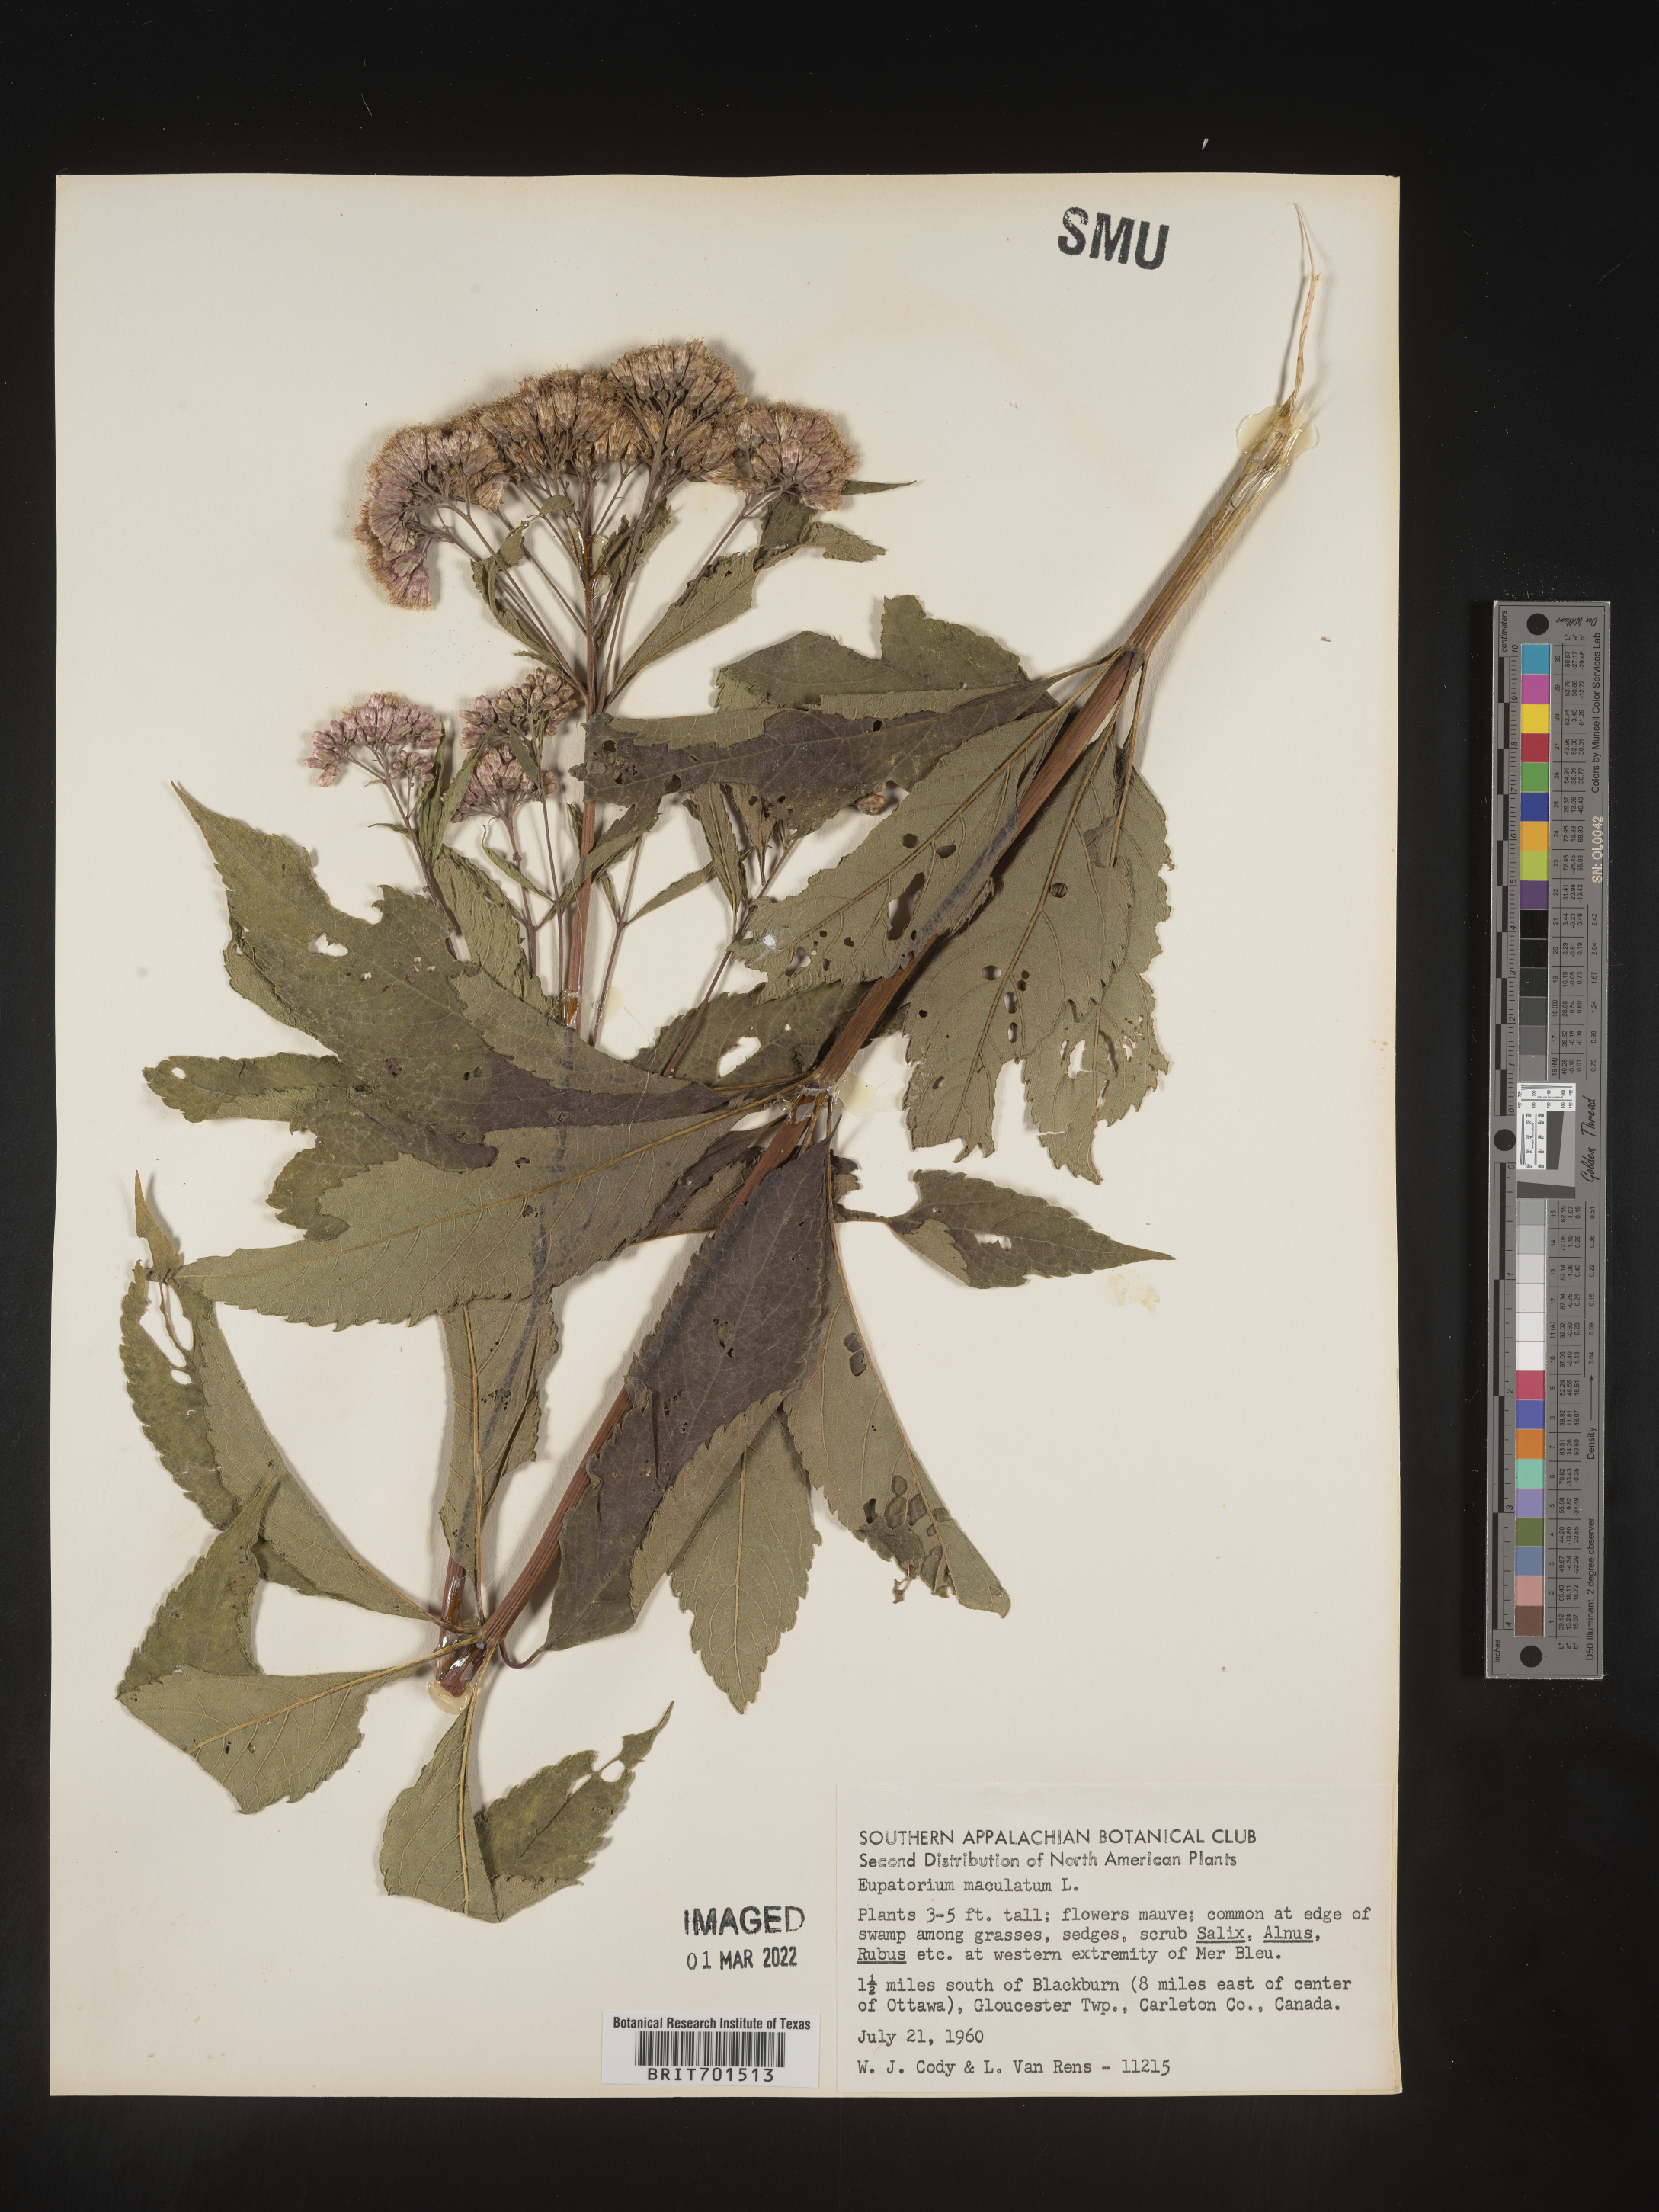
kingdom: Plantae
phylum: Tracheophyta
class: Magnoliopsida
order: Asterales
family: Asteraceae
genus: Eutrochium
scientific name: Eutrochium maculatum
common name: Spotted joe pye weed
